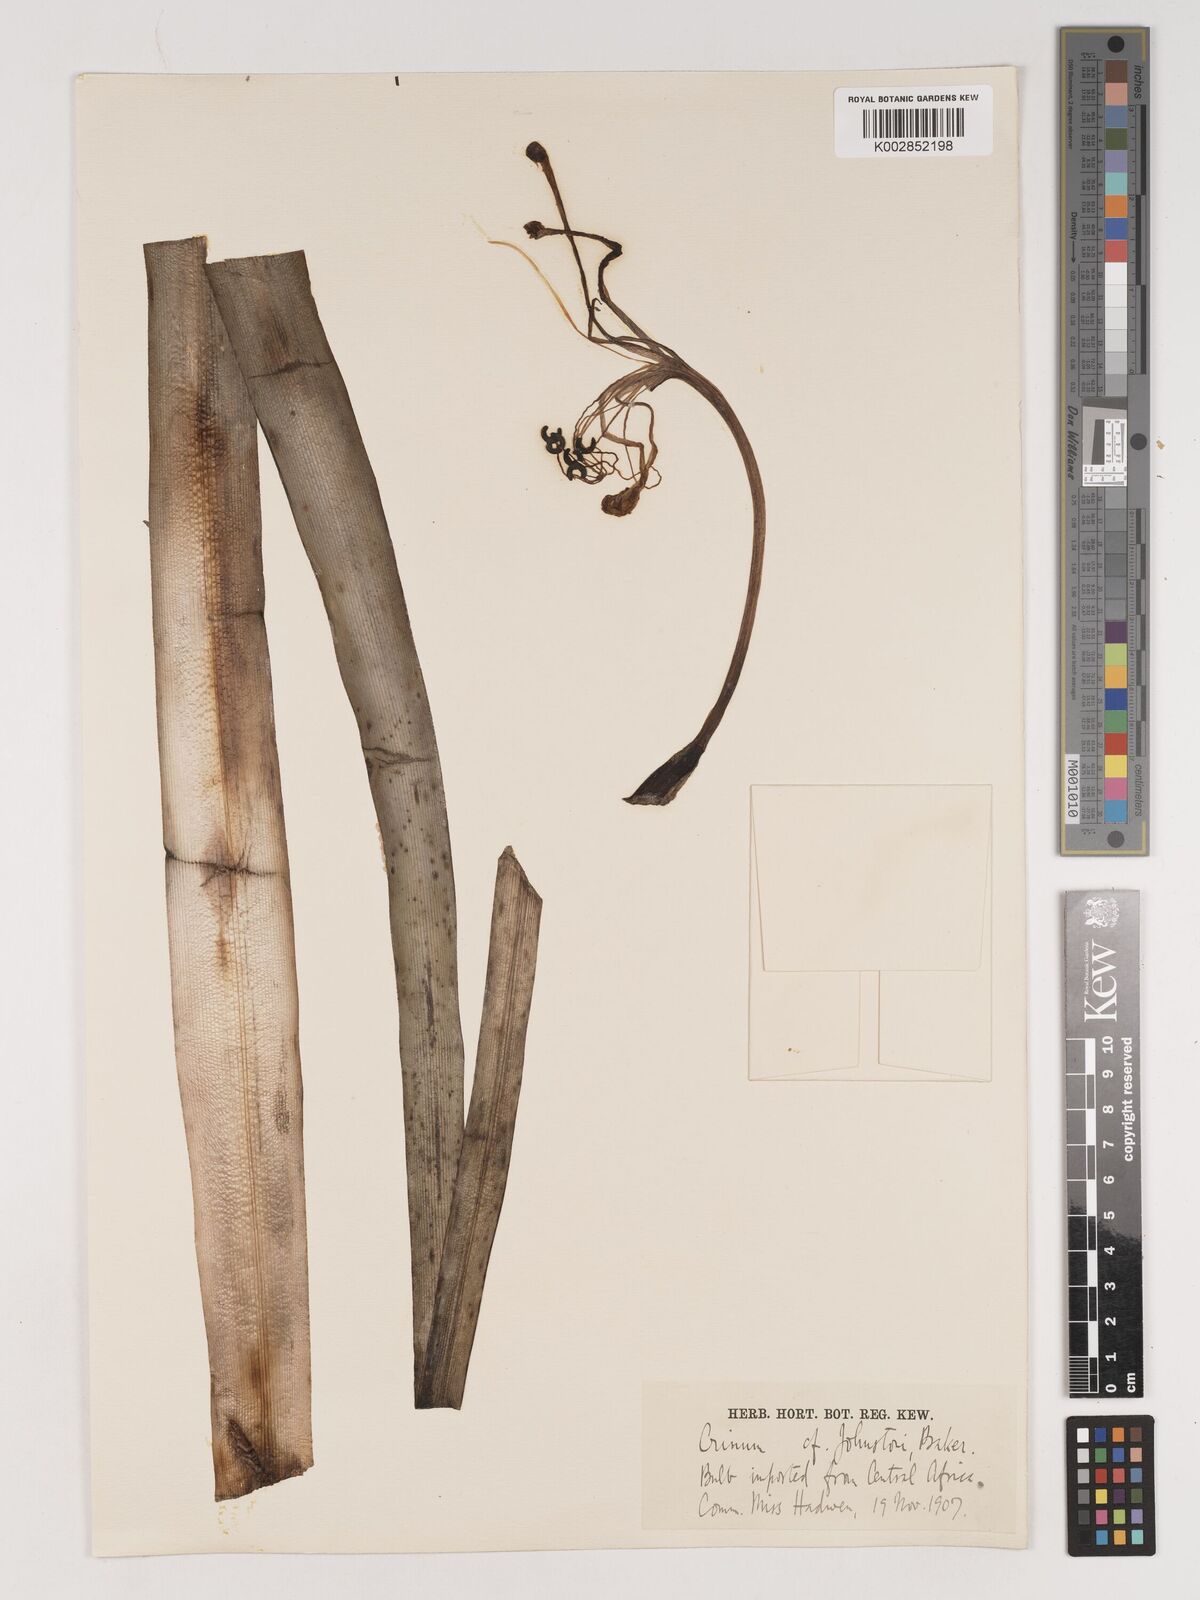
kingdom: Plantae
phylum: Tracheophyta
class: Liliopsida
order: Asparagales
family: Amaryllidaceae
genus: Crinum
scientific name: Crinum macowanii
